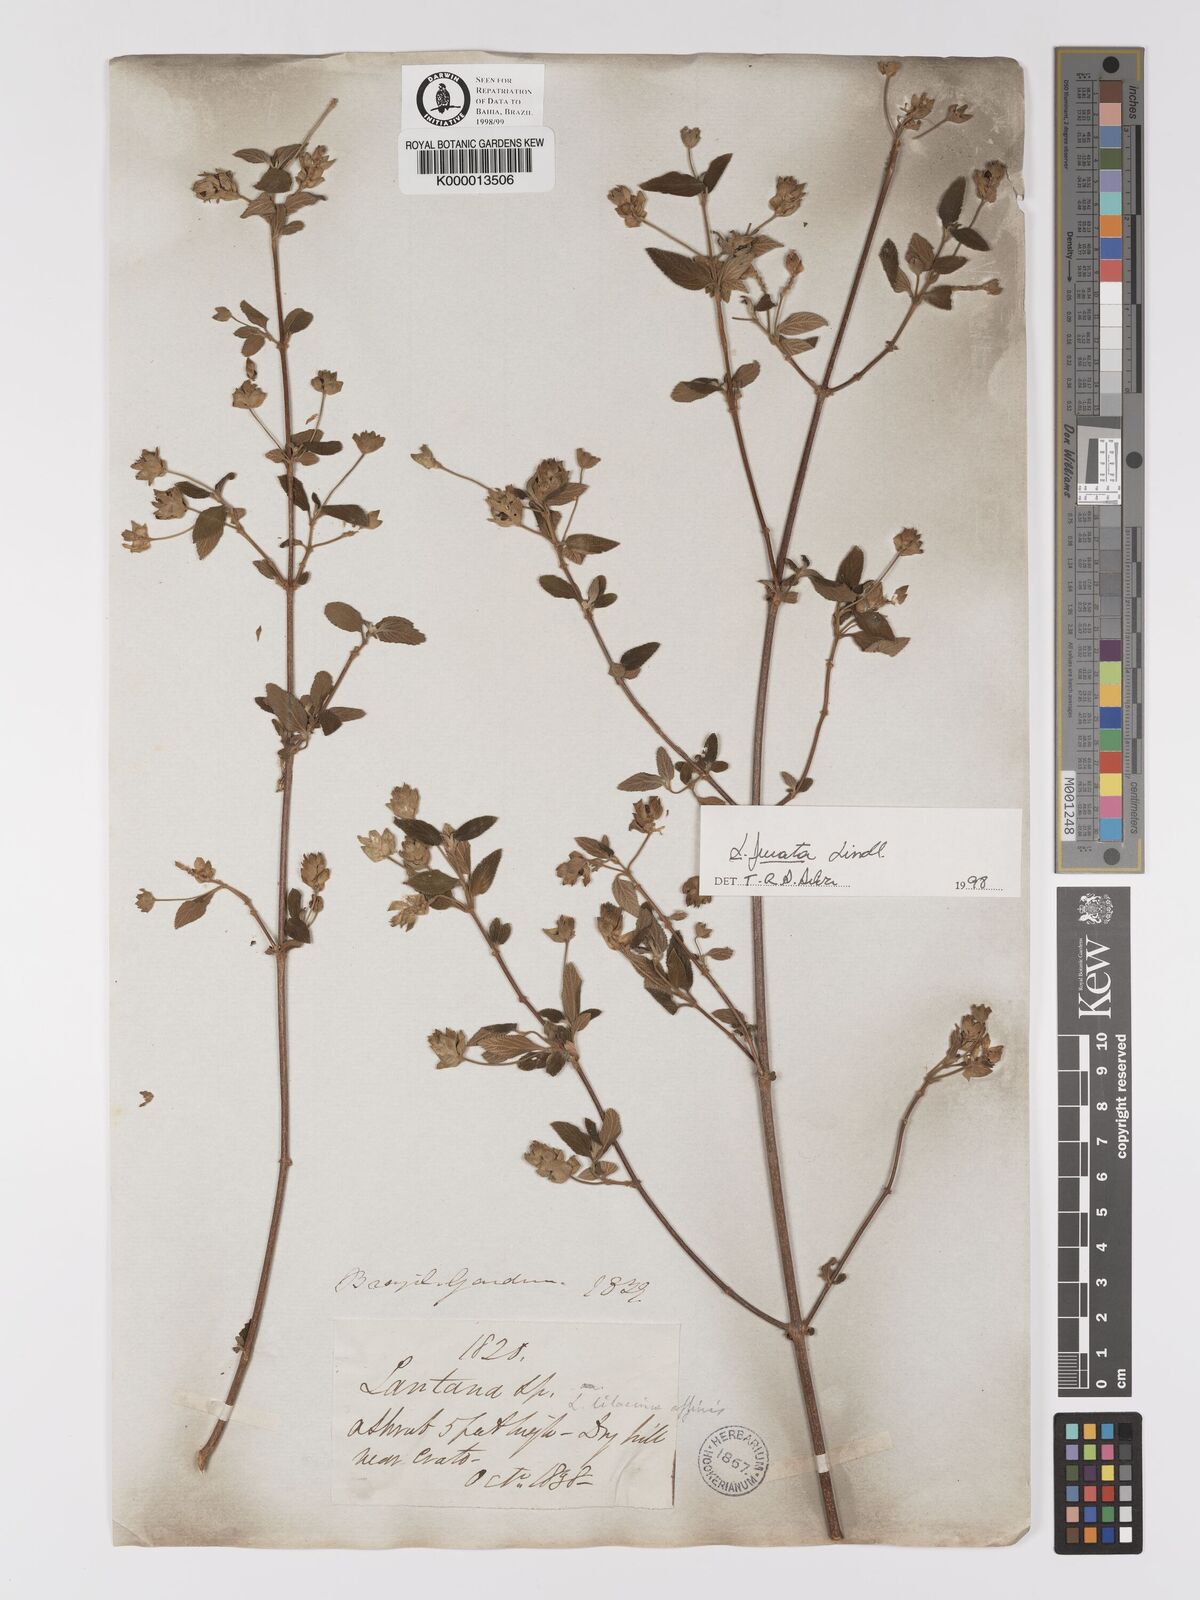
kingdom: Plantae
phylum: Tracheophyta
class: Magnoliopsida
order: Lamiales
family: Verbenaceae
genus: Lantana
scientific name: Lantana fucata
